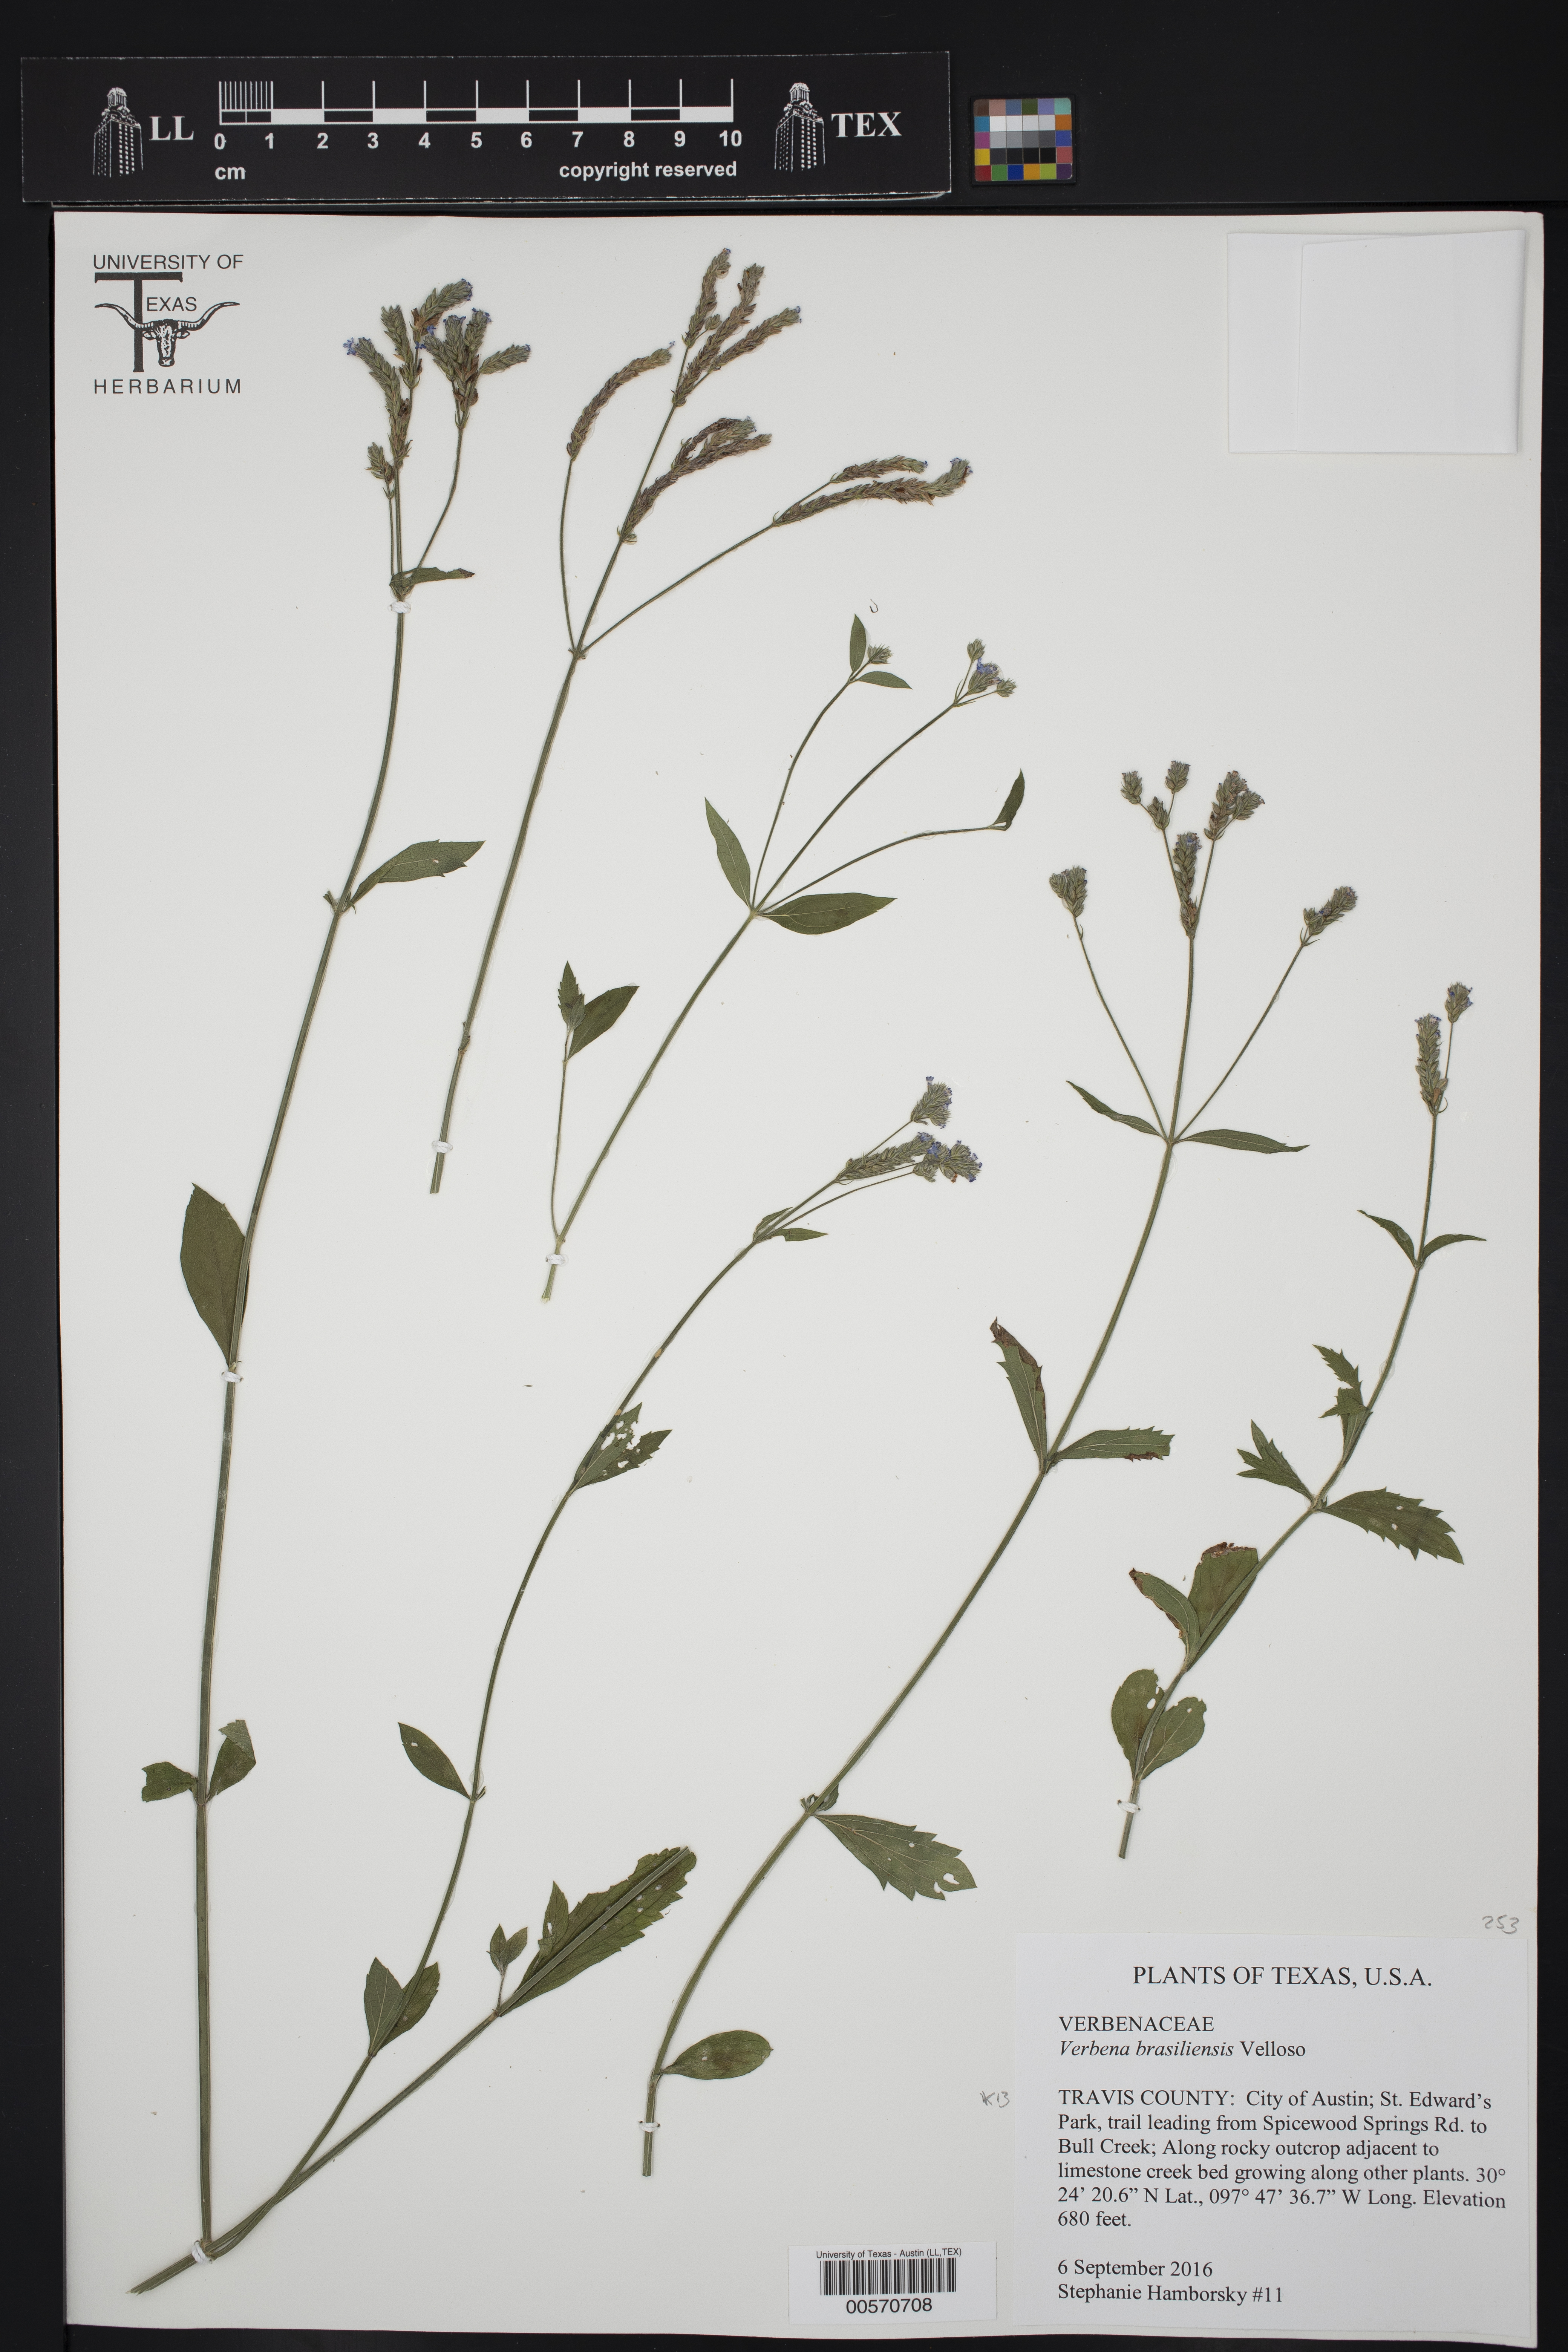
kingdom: Plantae
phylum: Tracheophyta
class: Magnoliopsida
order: Lamiales
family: Verbenaceae
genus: Verbena
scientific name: Verbena brasiliensis
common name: Brazilian vervain
